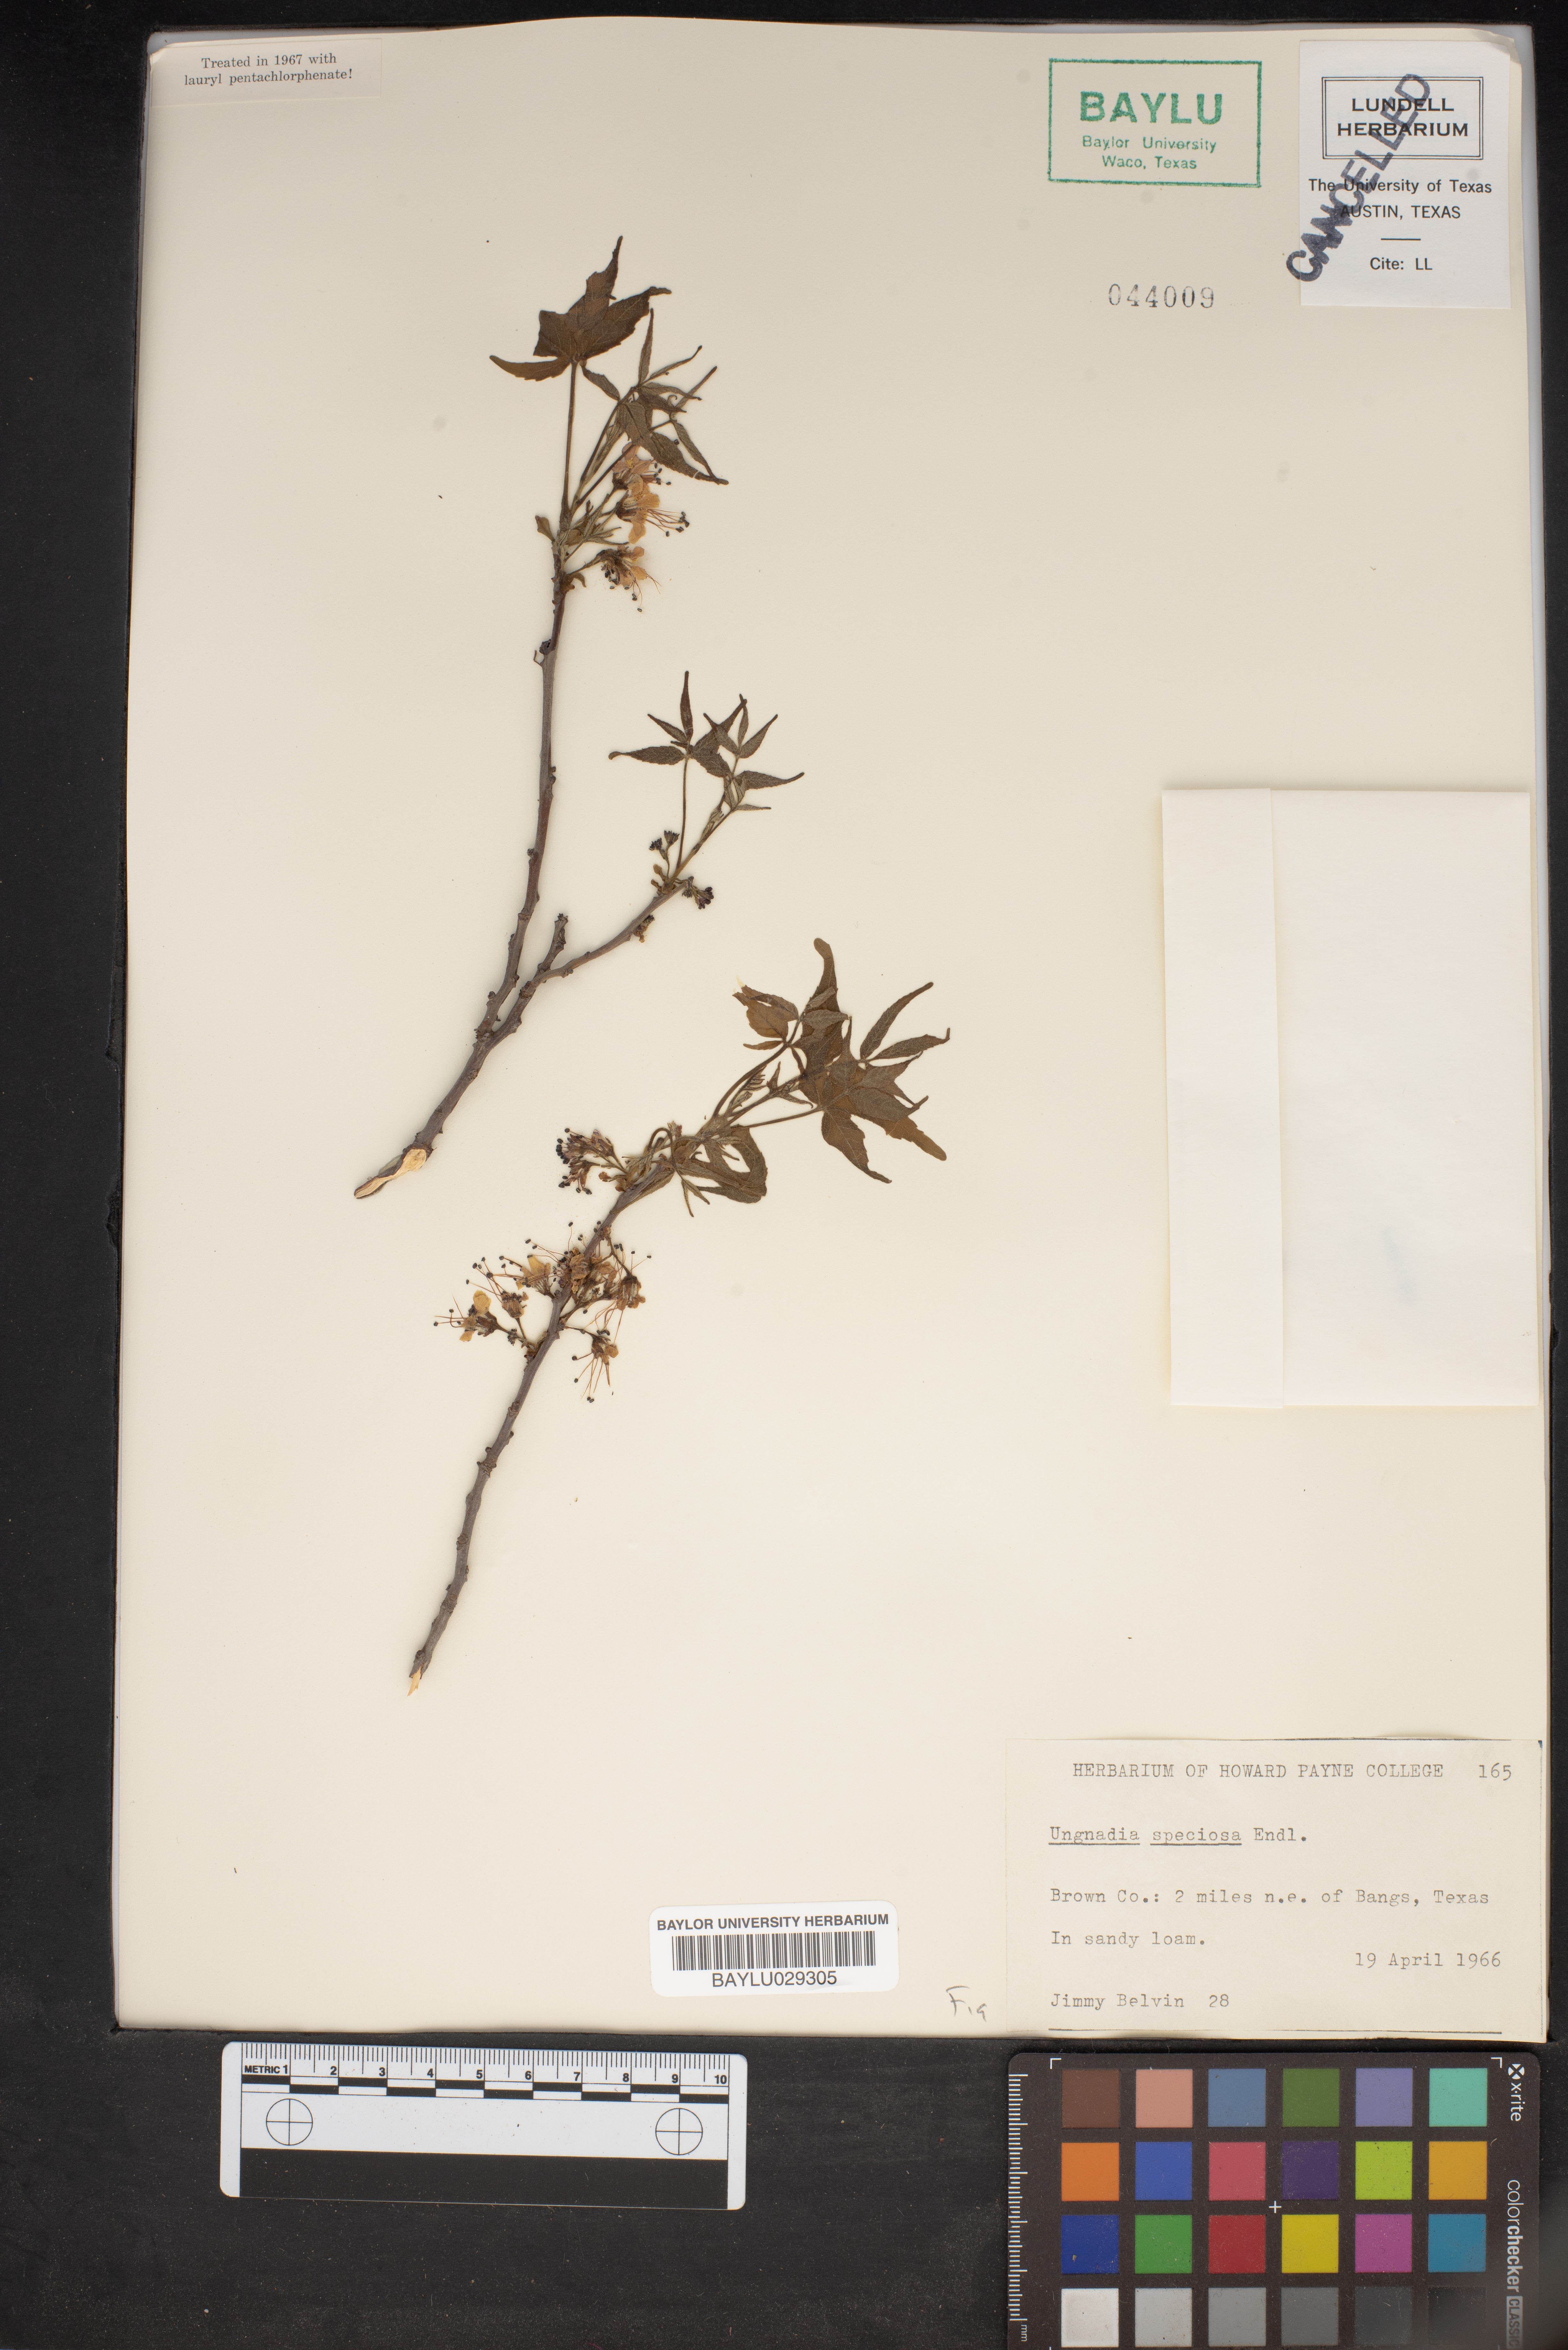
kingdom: Plantae
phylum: Tracheophyta
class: Magnoliopsida
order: Sapindales
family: Sapindaceae
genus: Ungnadia
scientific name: Ungnadia speciosa
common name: Texas-buckeye
